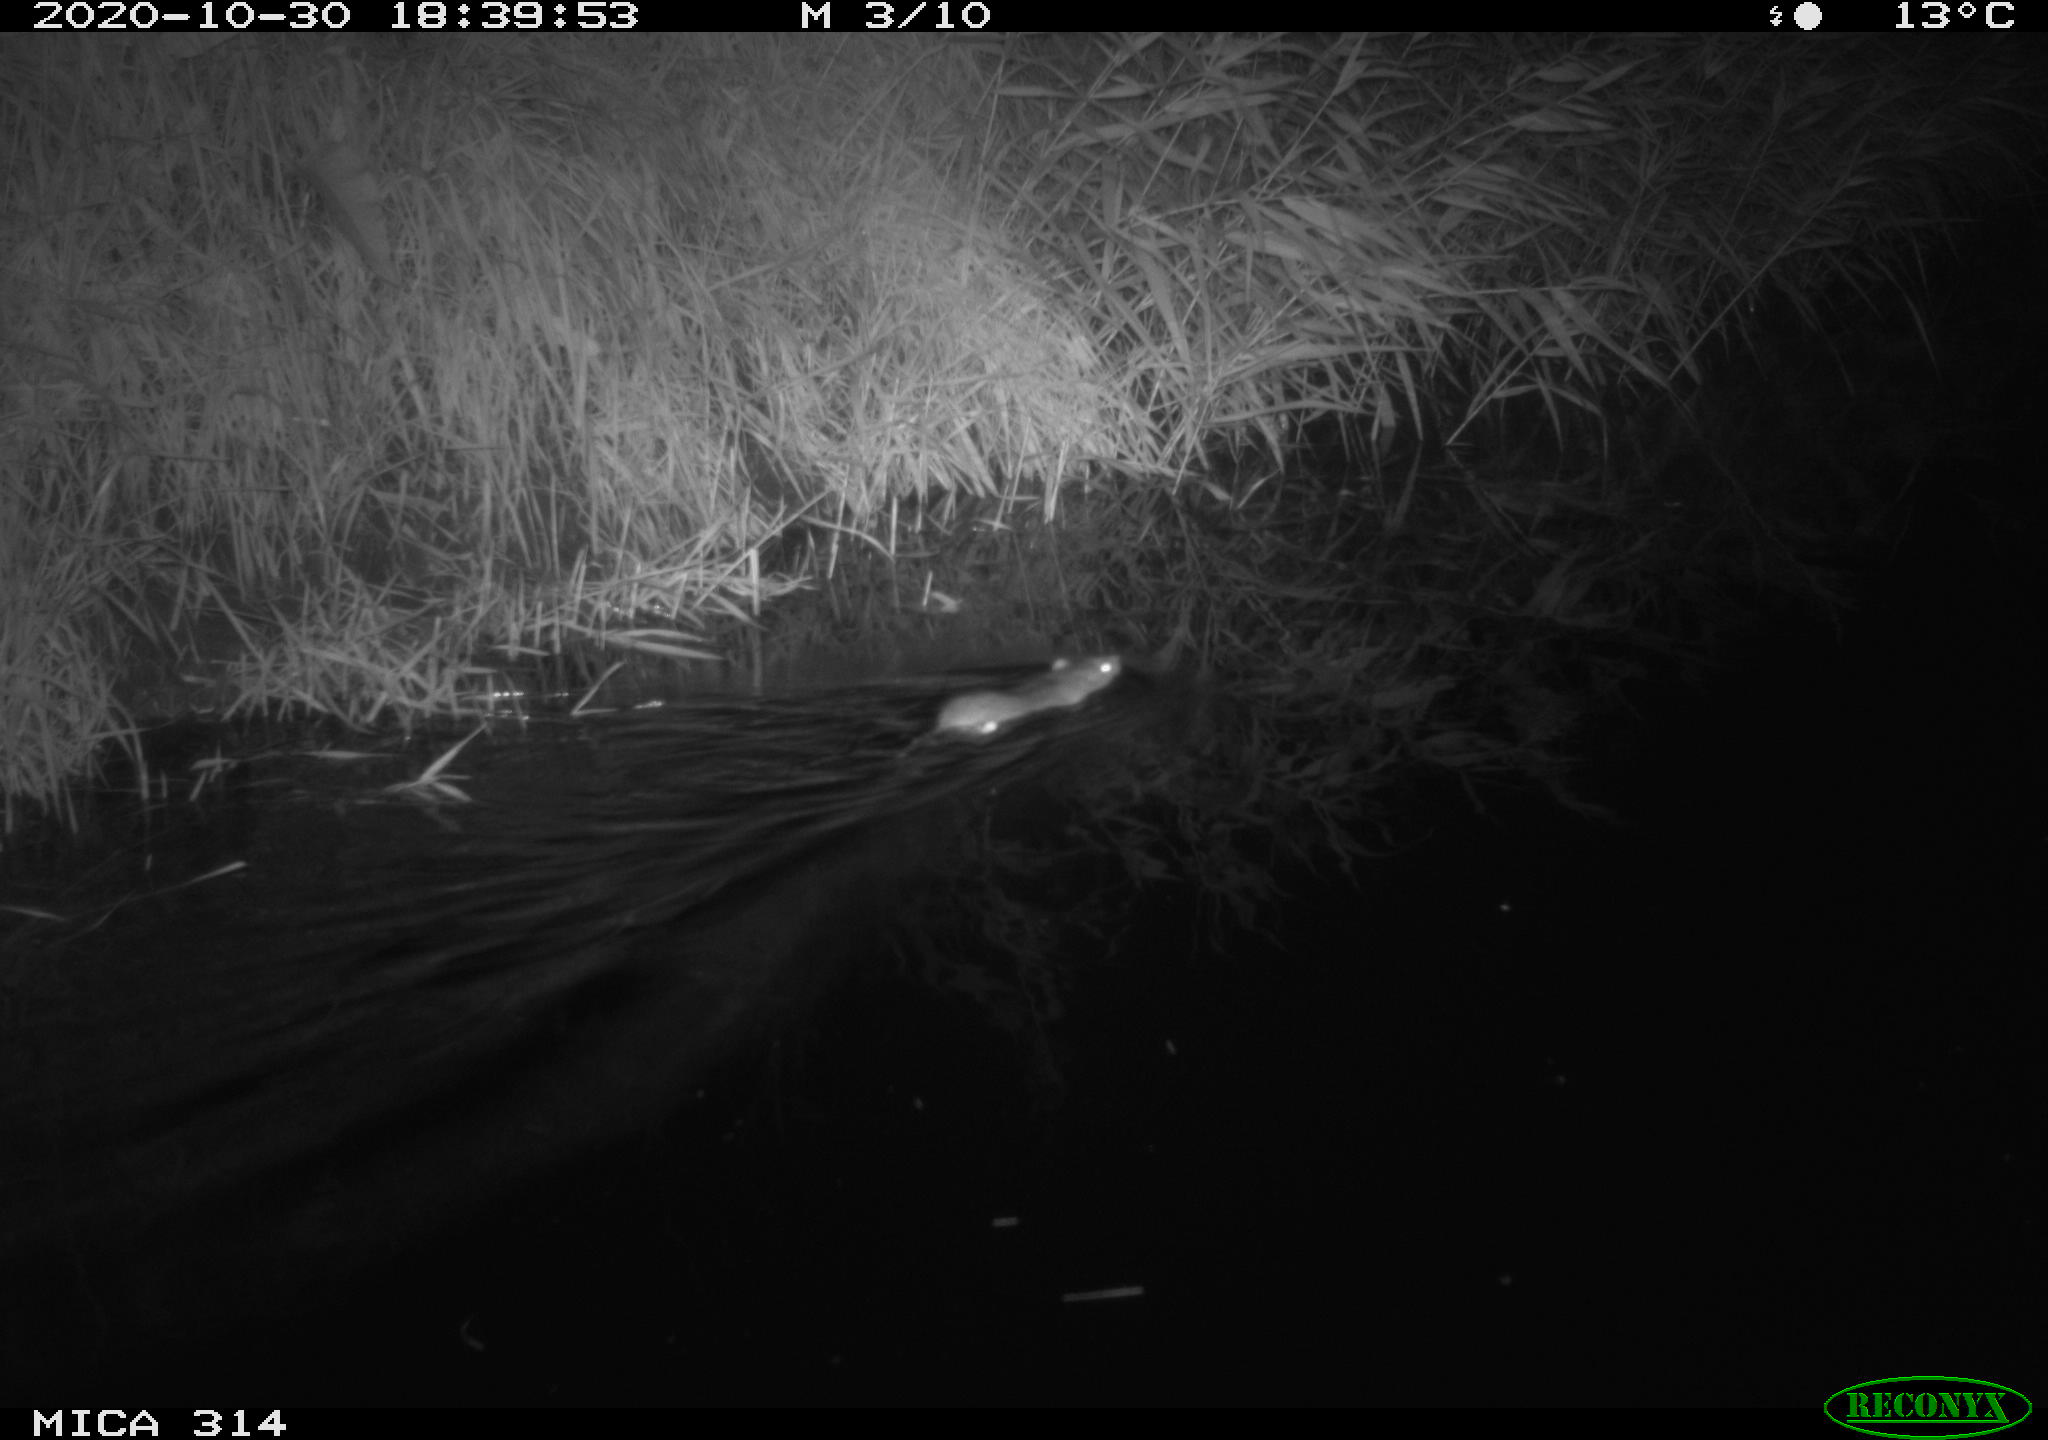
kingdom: Animalia
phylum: Chordata
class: Mammalia
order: Rodentia
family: Muridae
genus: Rattus
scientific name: Rattus norvegicus
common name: Brown rat
